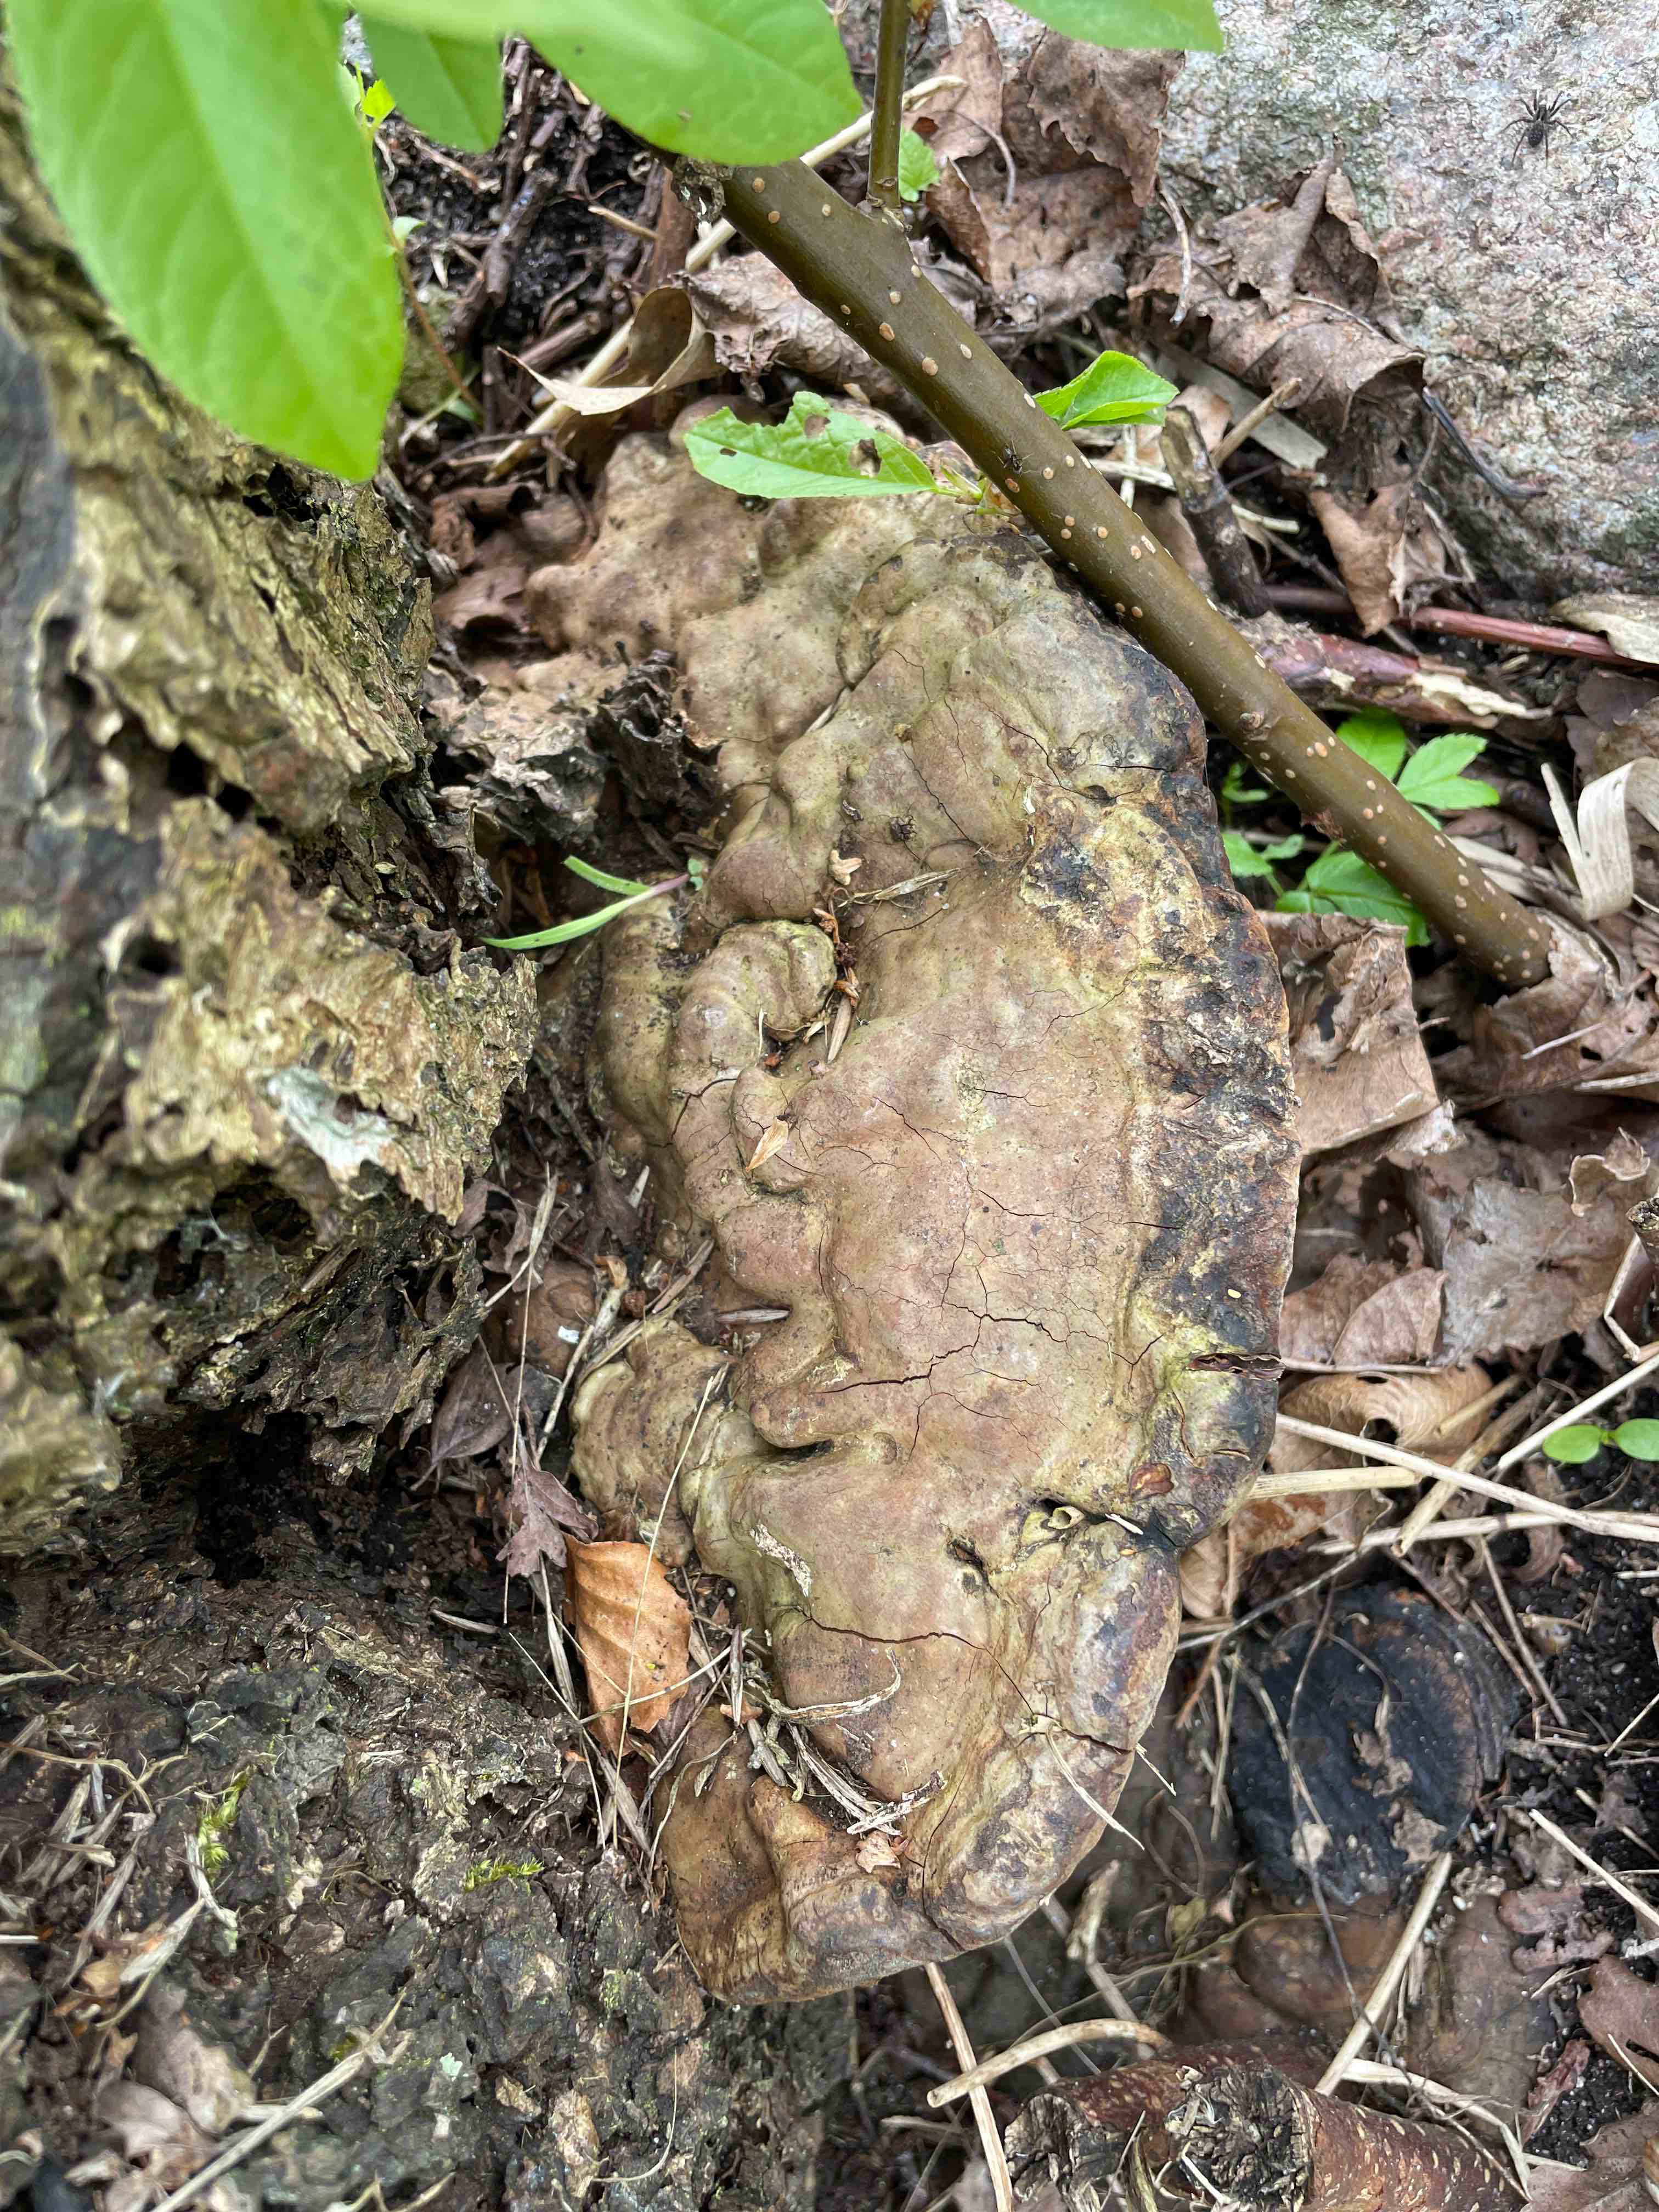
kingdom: Fungi
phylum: Basidiomycota
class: Agaricomycetes
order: Polyporales
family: Polyporaceae
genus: Ganoderma
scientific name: Ganoderma applanatum
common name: flad lakporesvamp
